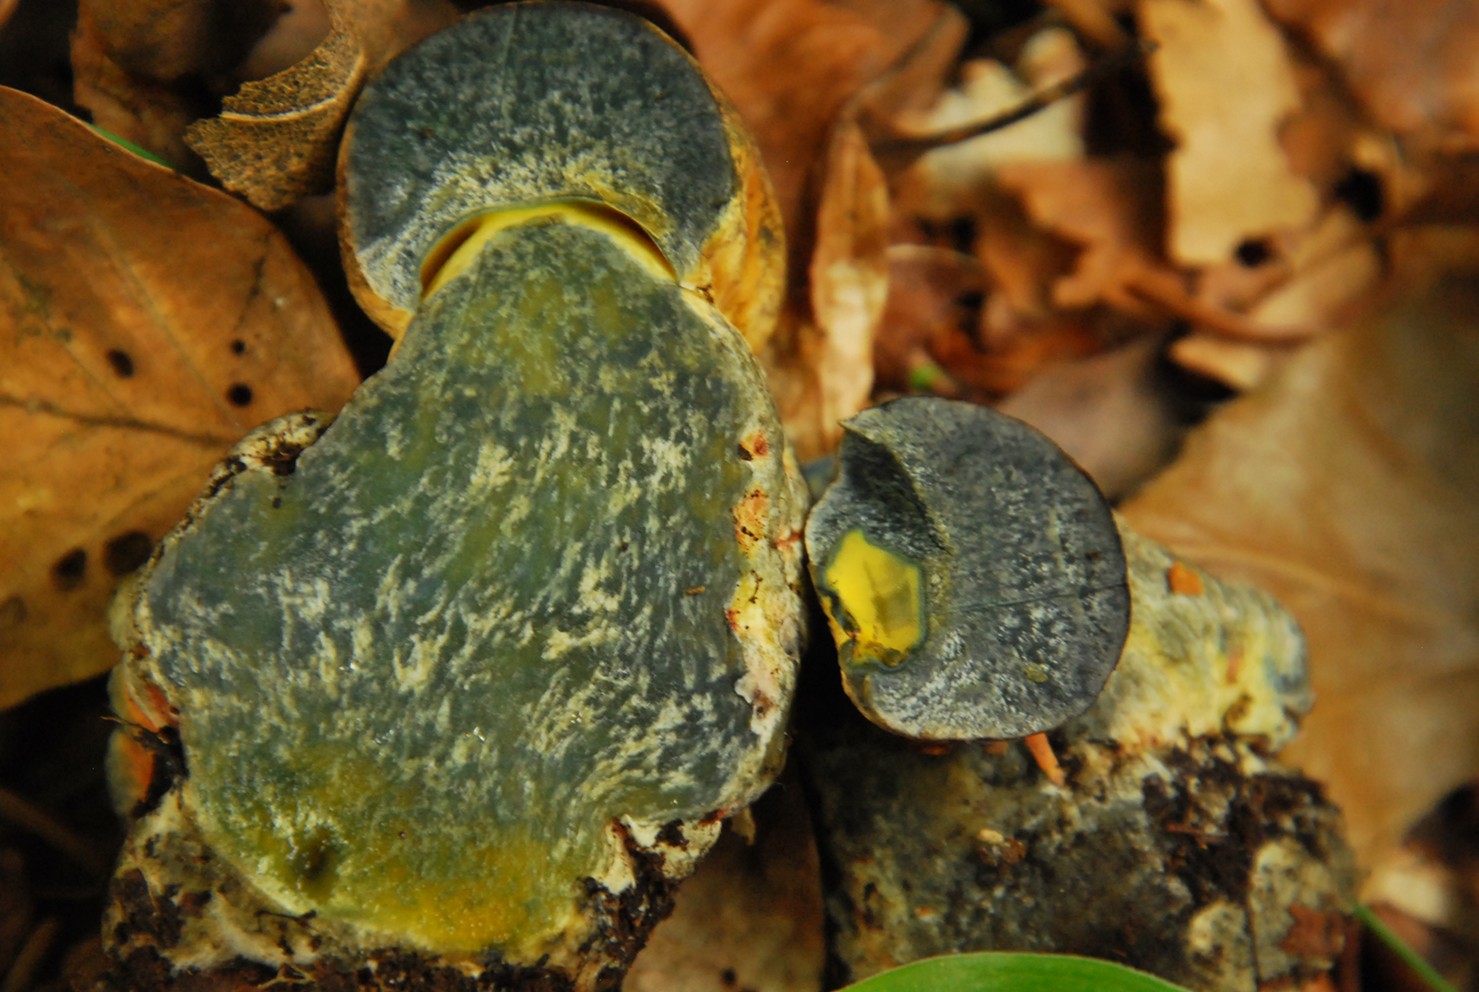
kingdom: Fungi
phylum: Basidiomycota
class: Agaricomycetes
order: Boletales
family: Boletaceae
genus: Cyanoboletus
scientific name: Cyanoboletus pulverulentus
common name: sortblånende rørhat
